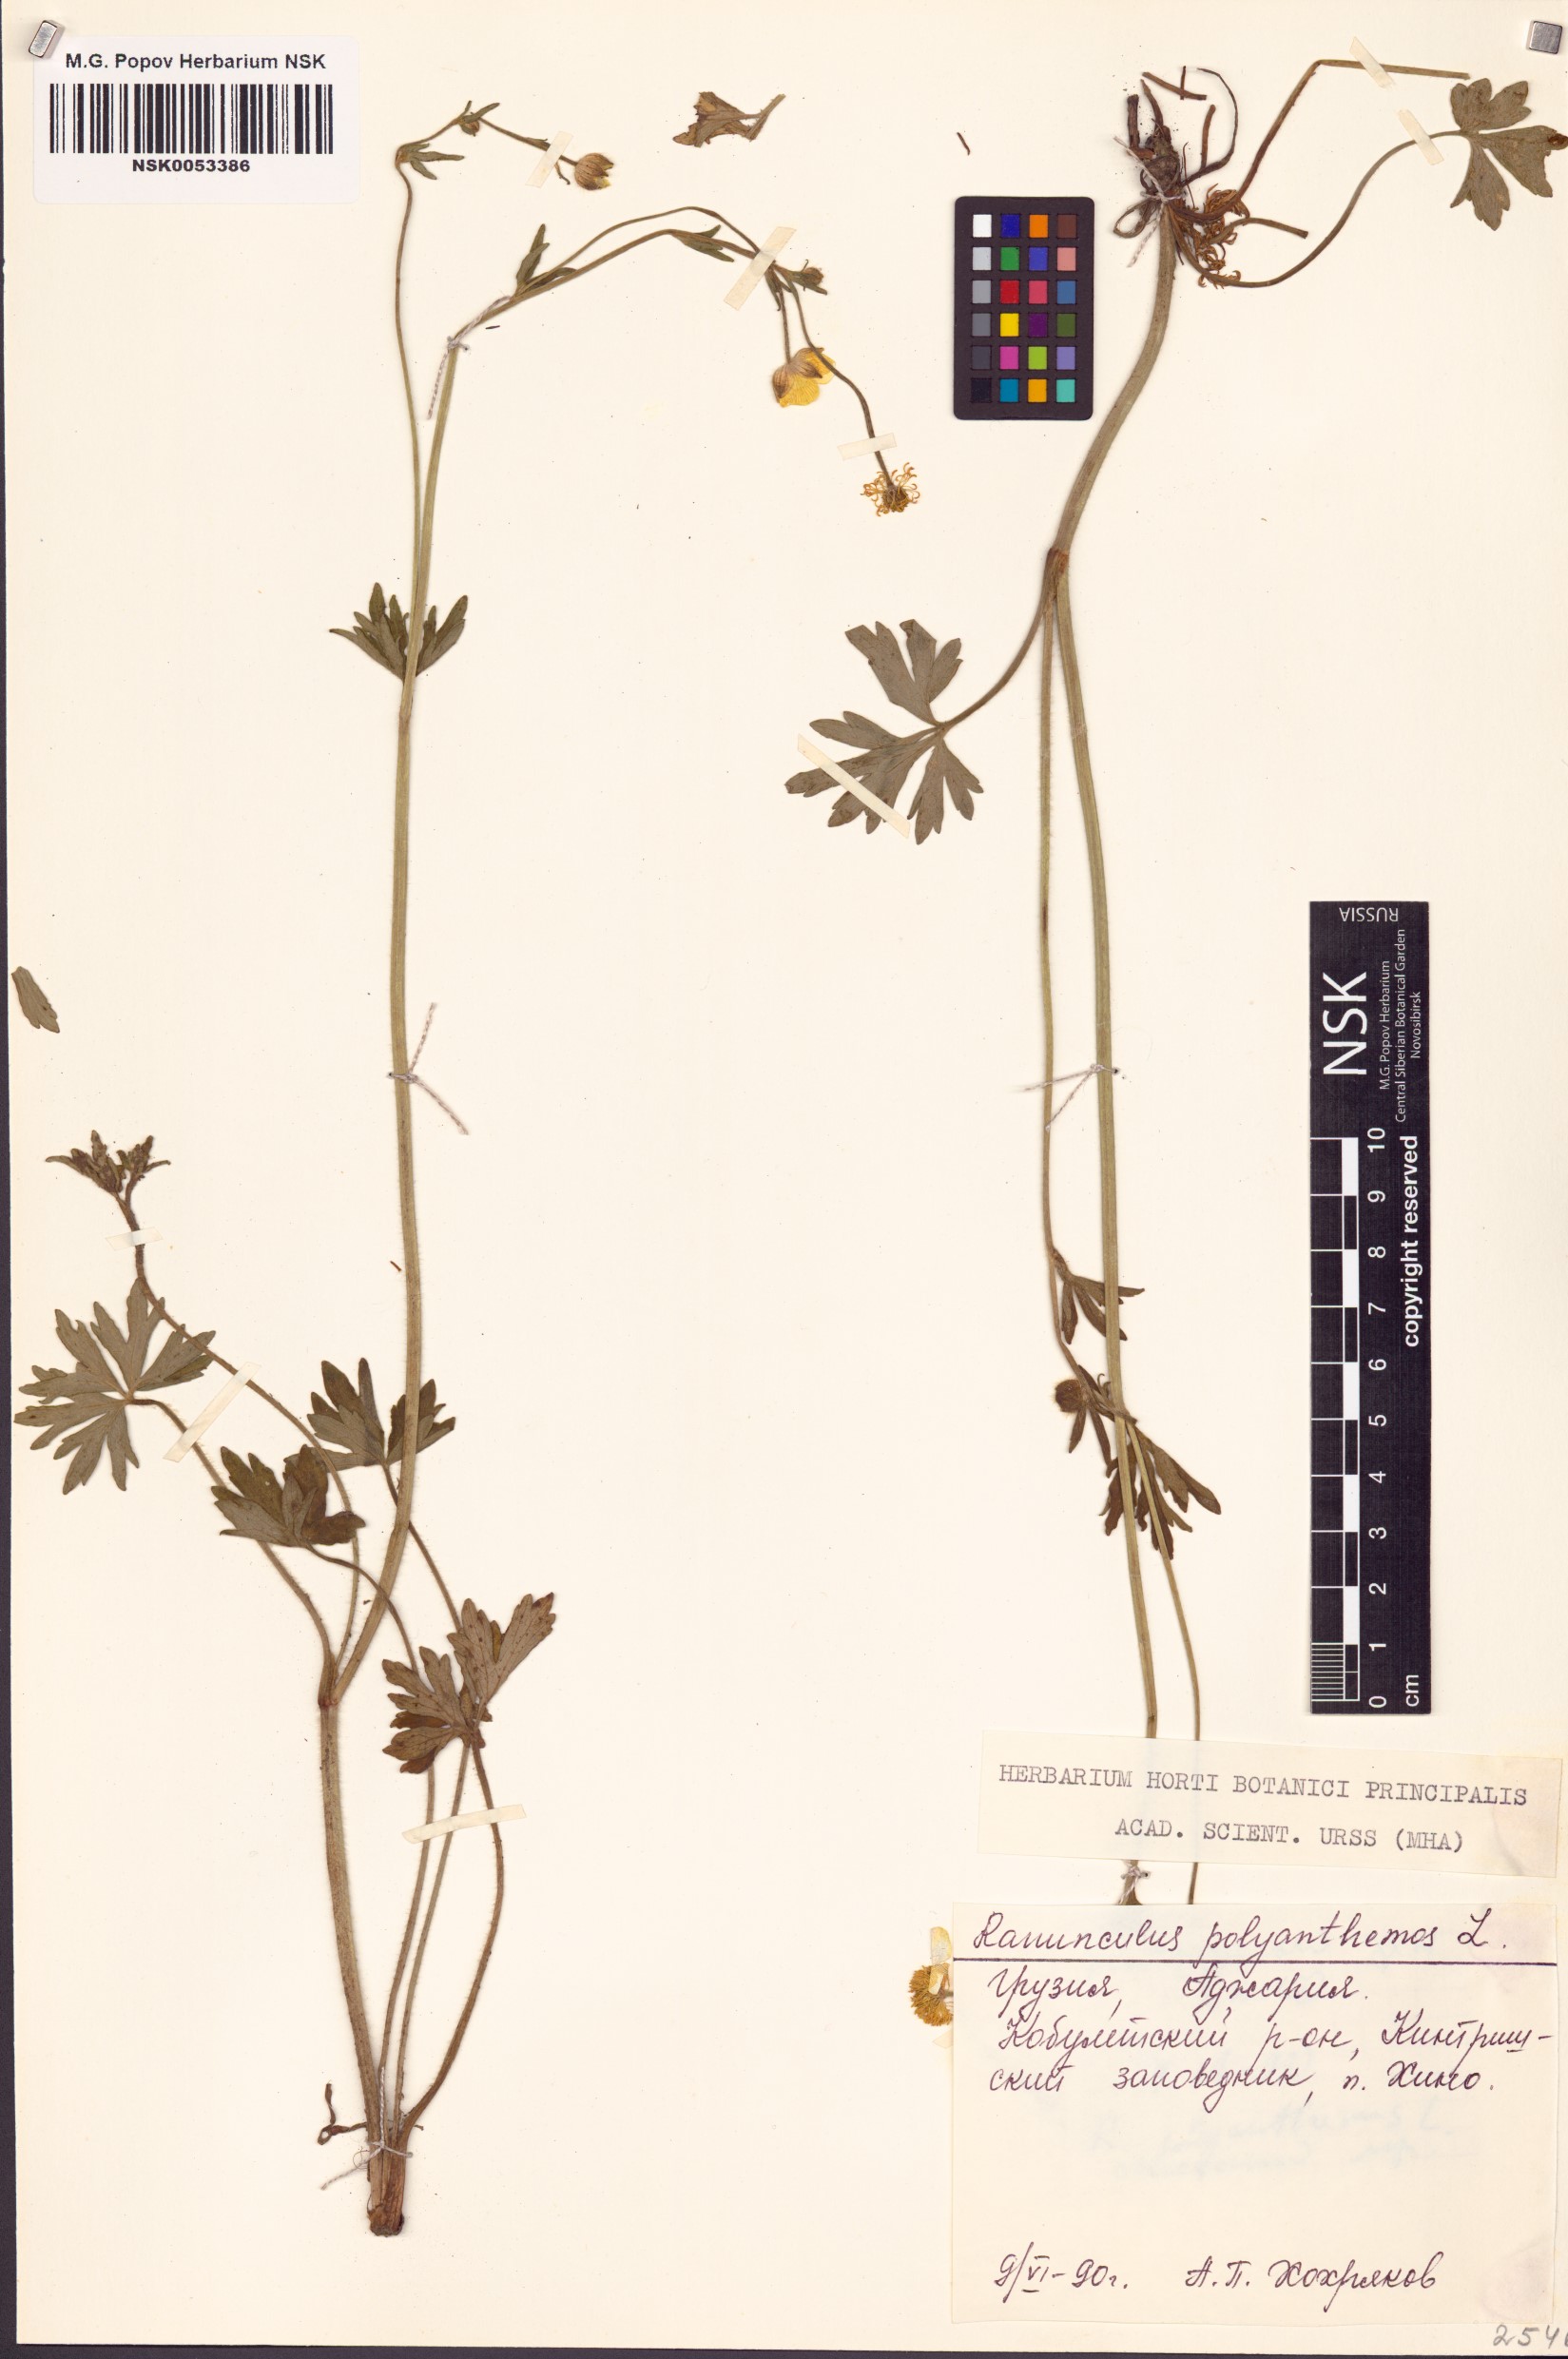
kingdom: Plantae
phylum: Tracheophyta
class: Magnoliopsida
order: Ranunculales
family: Ranunculaceae
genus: Ranunculus
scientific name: Ranunculus polyanthemos
